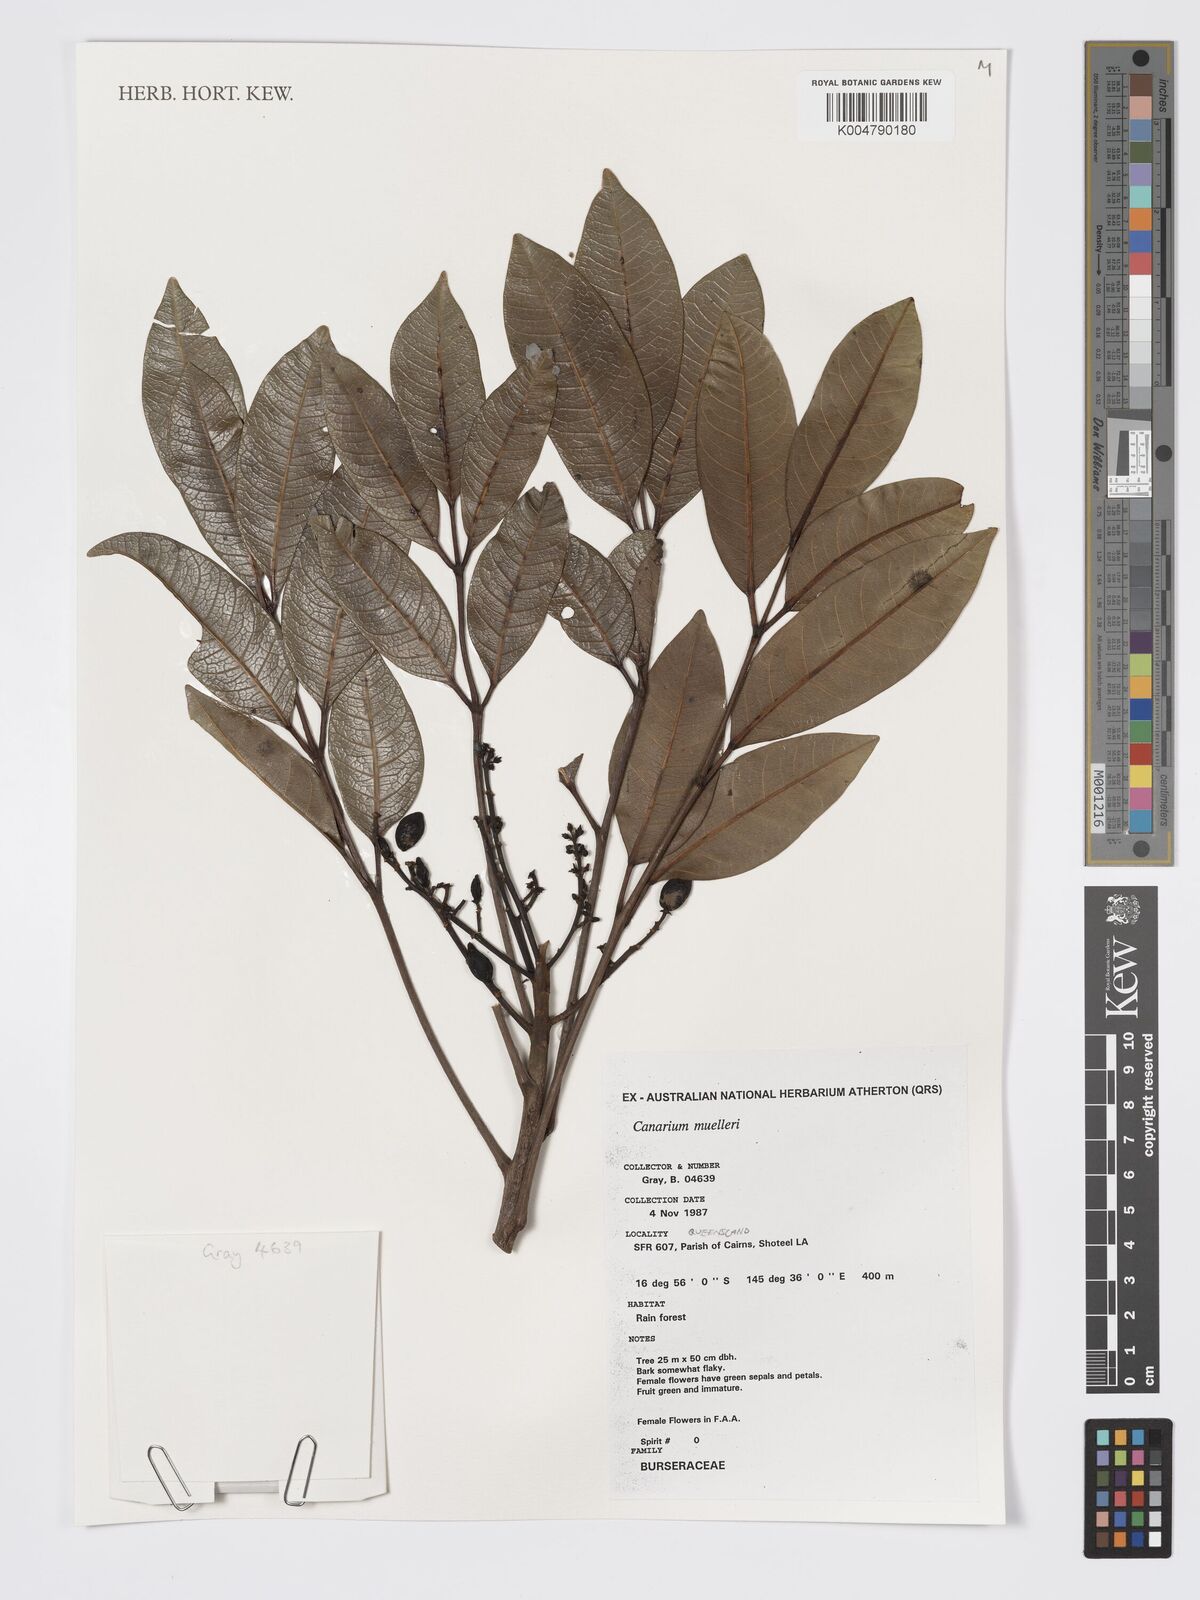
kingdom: Plantae
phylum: Tracheophyta
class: Magnoliopsida
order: Sapindales
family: Burseraceae
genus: Canarium
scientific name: Canarium muelleri
